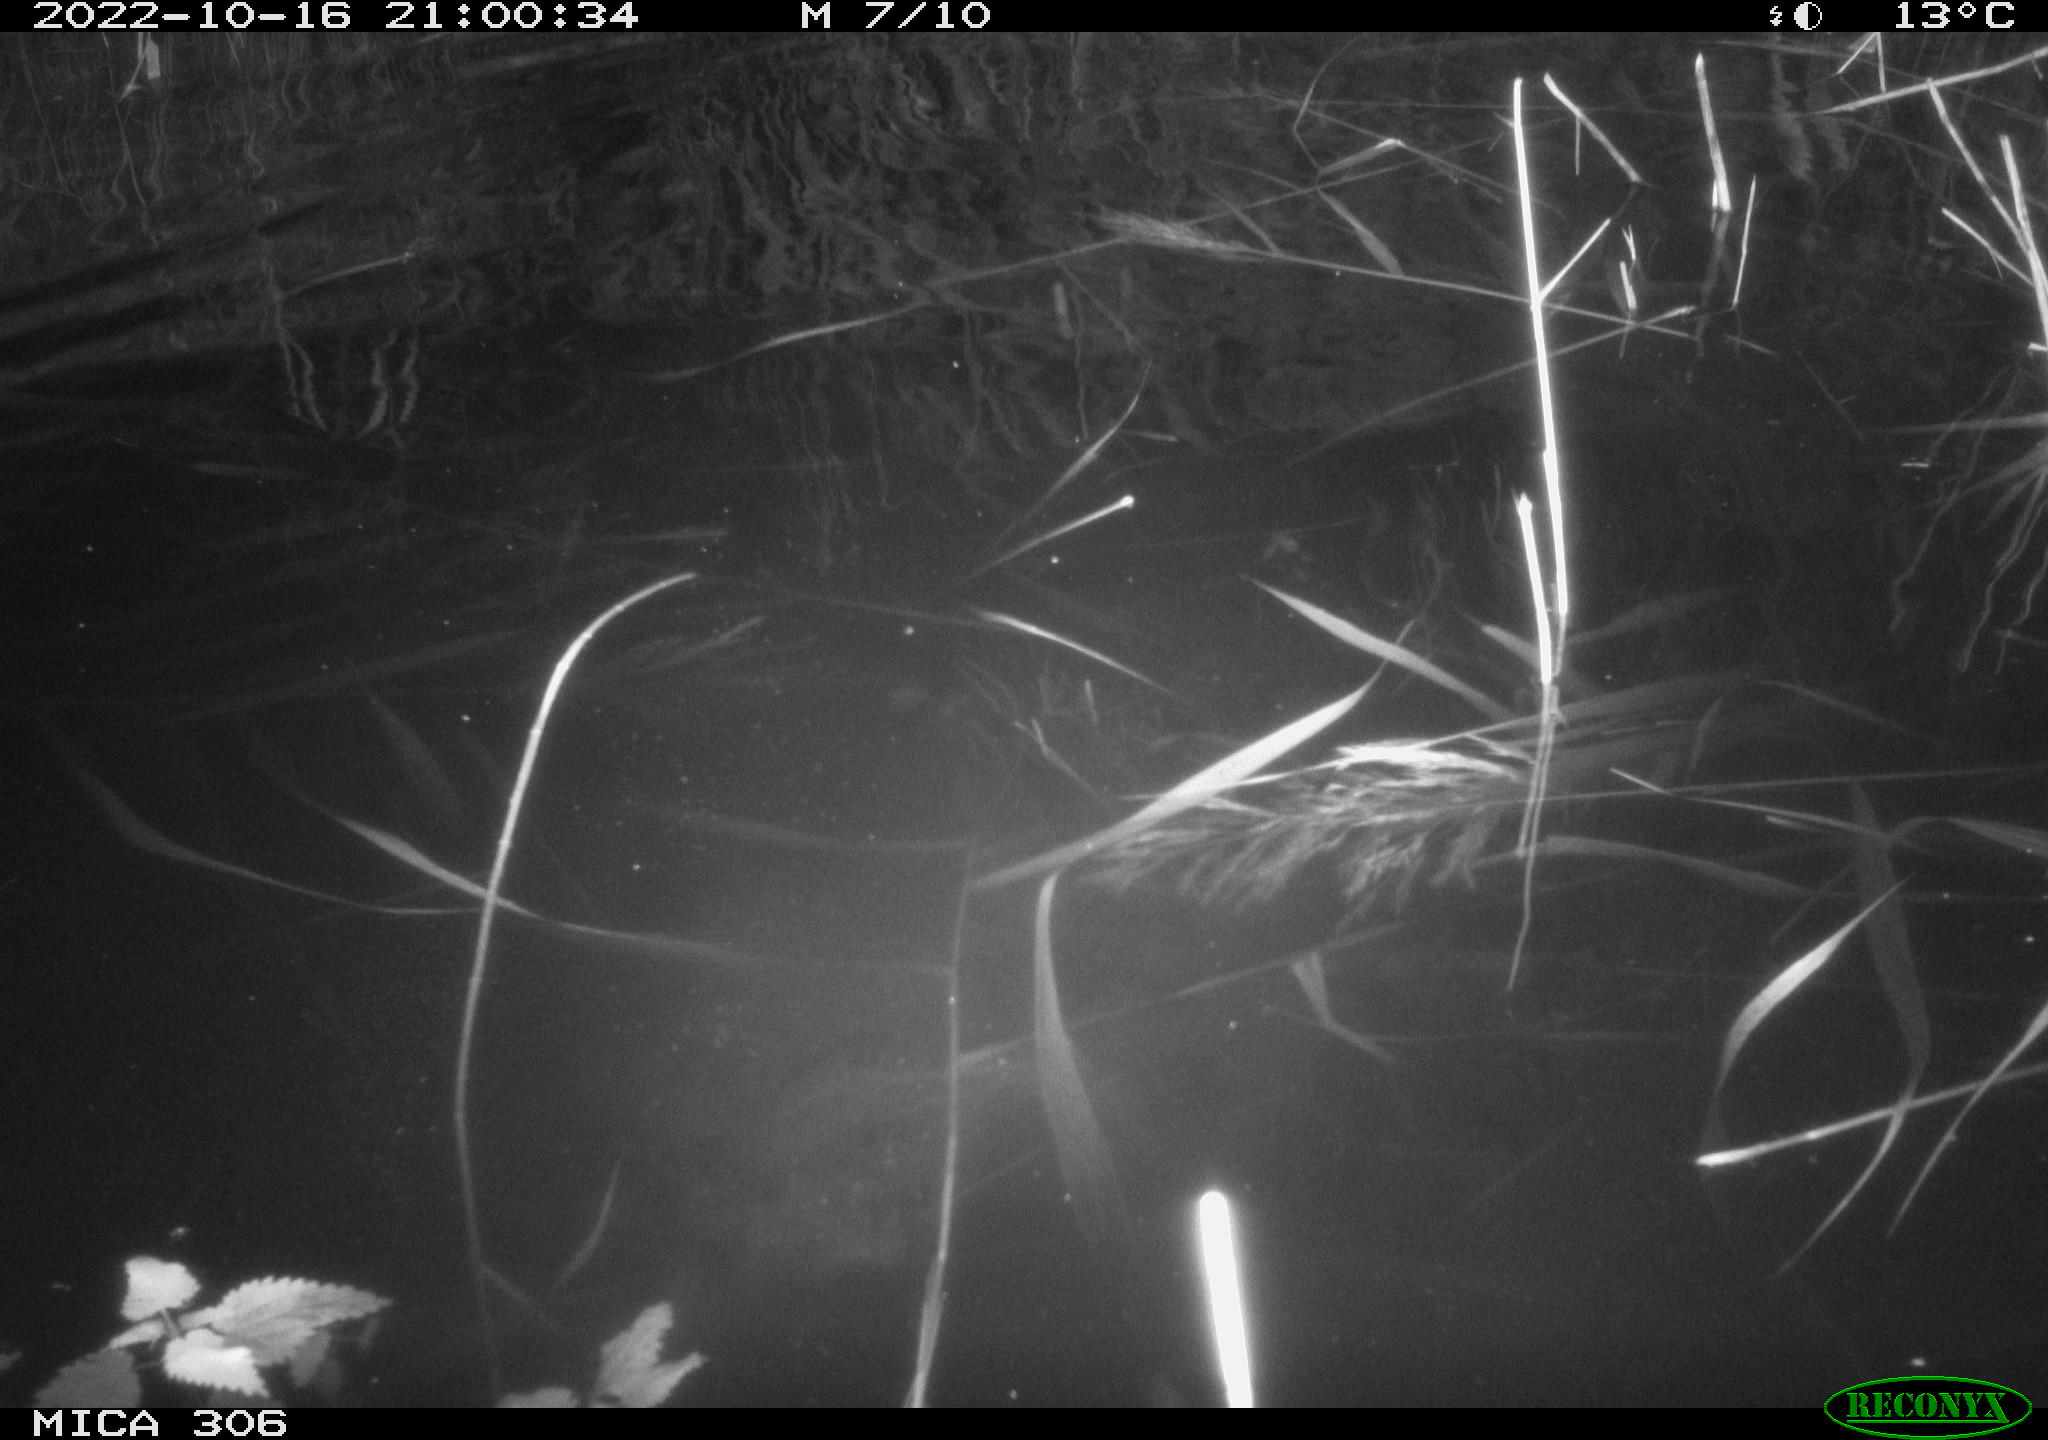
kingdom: Animalia
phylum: Chordata
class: Mammalia
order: Rodentia
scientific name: Rodentia
